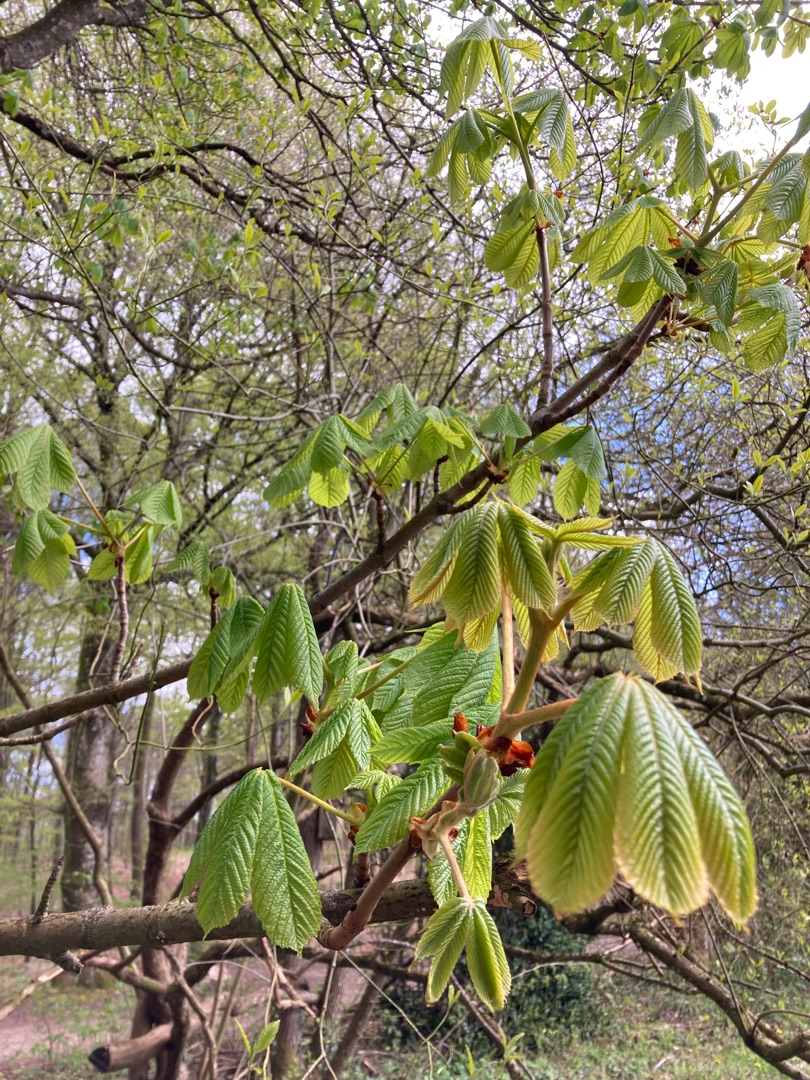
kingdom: Plantae
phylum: Tracheophyta
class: Magnoliopsida
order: Sapindales
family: Sapindaceae
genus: Aesculus
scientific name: Aesculus hippocastanum
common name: Hestekastanie
